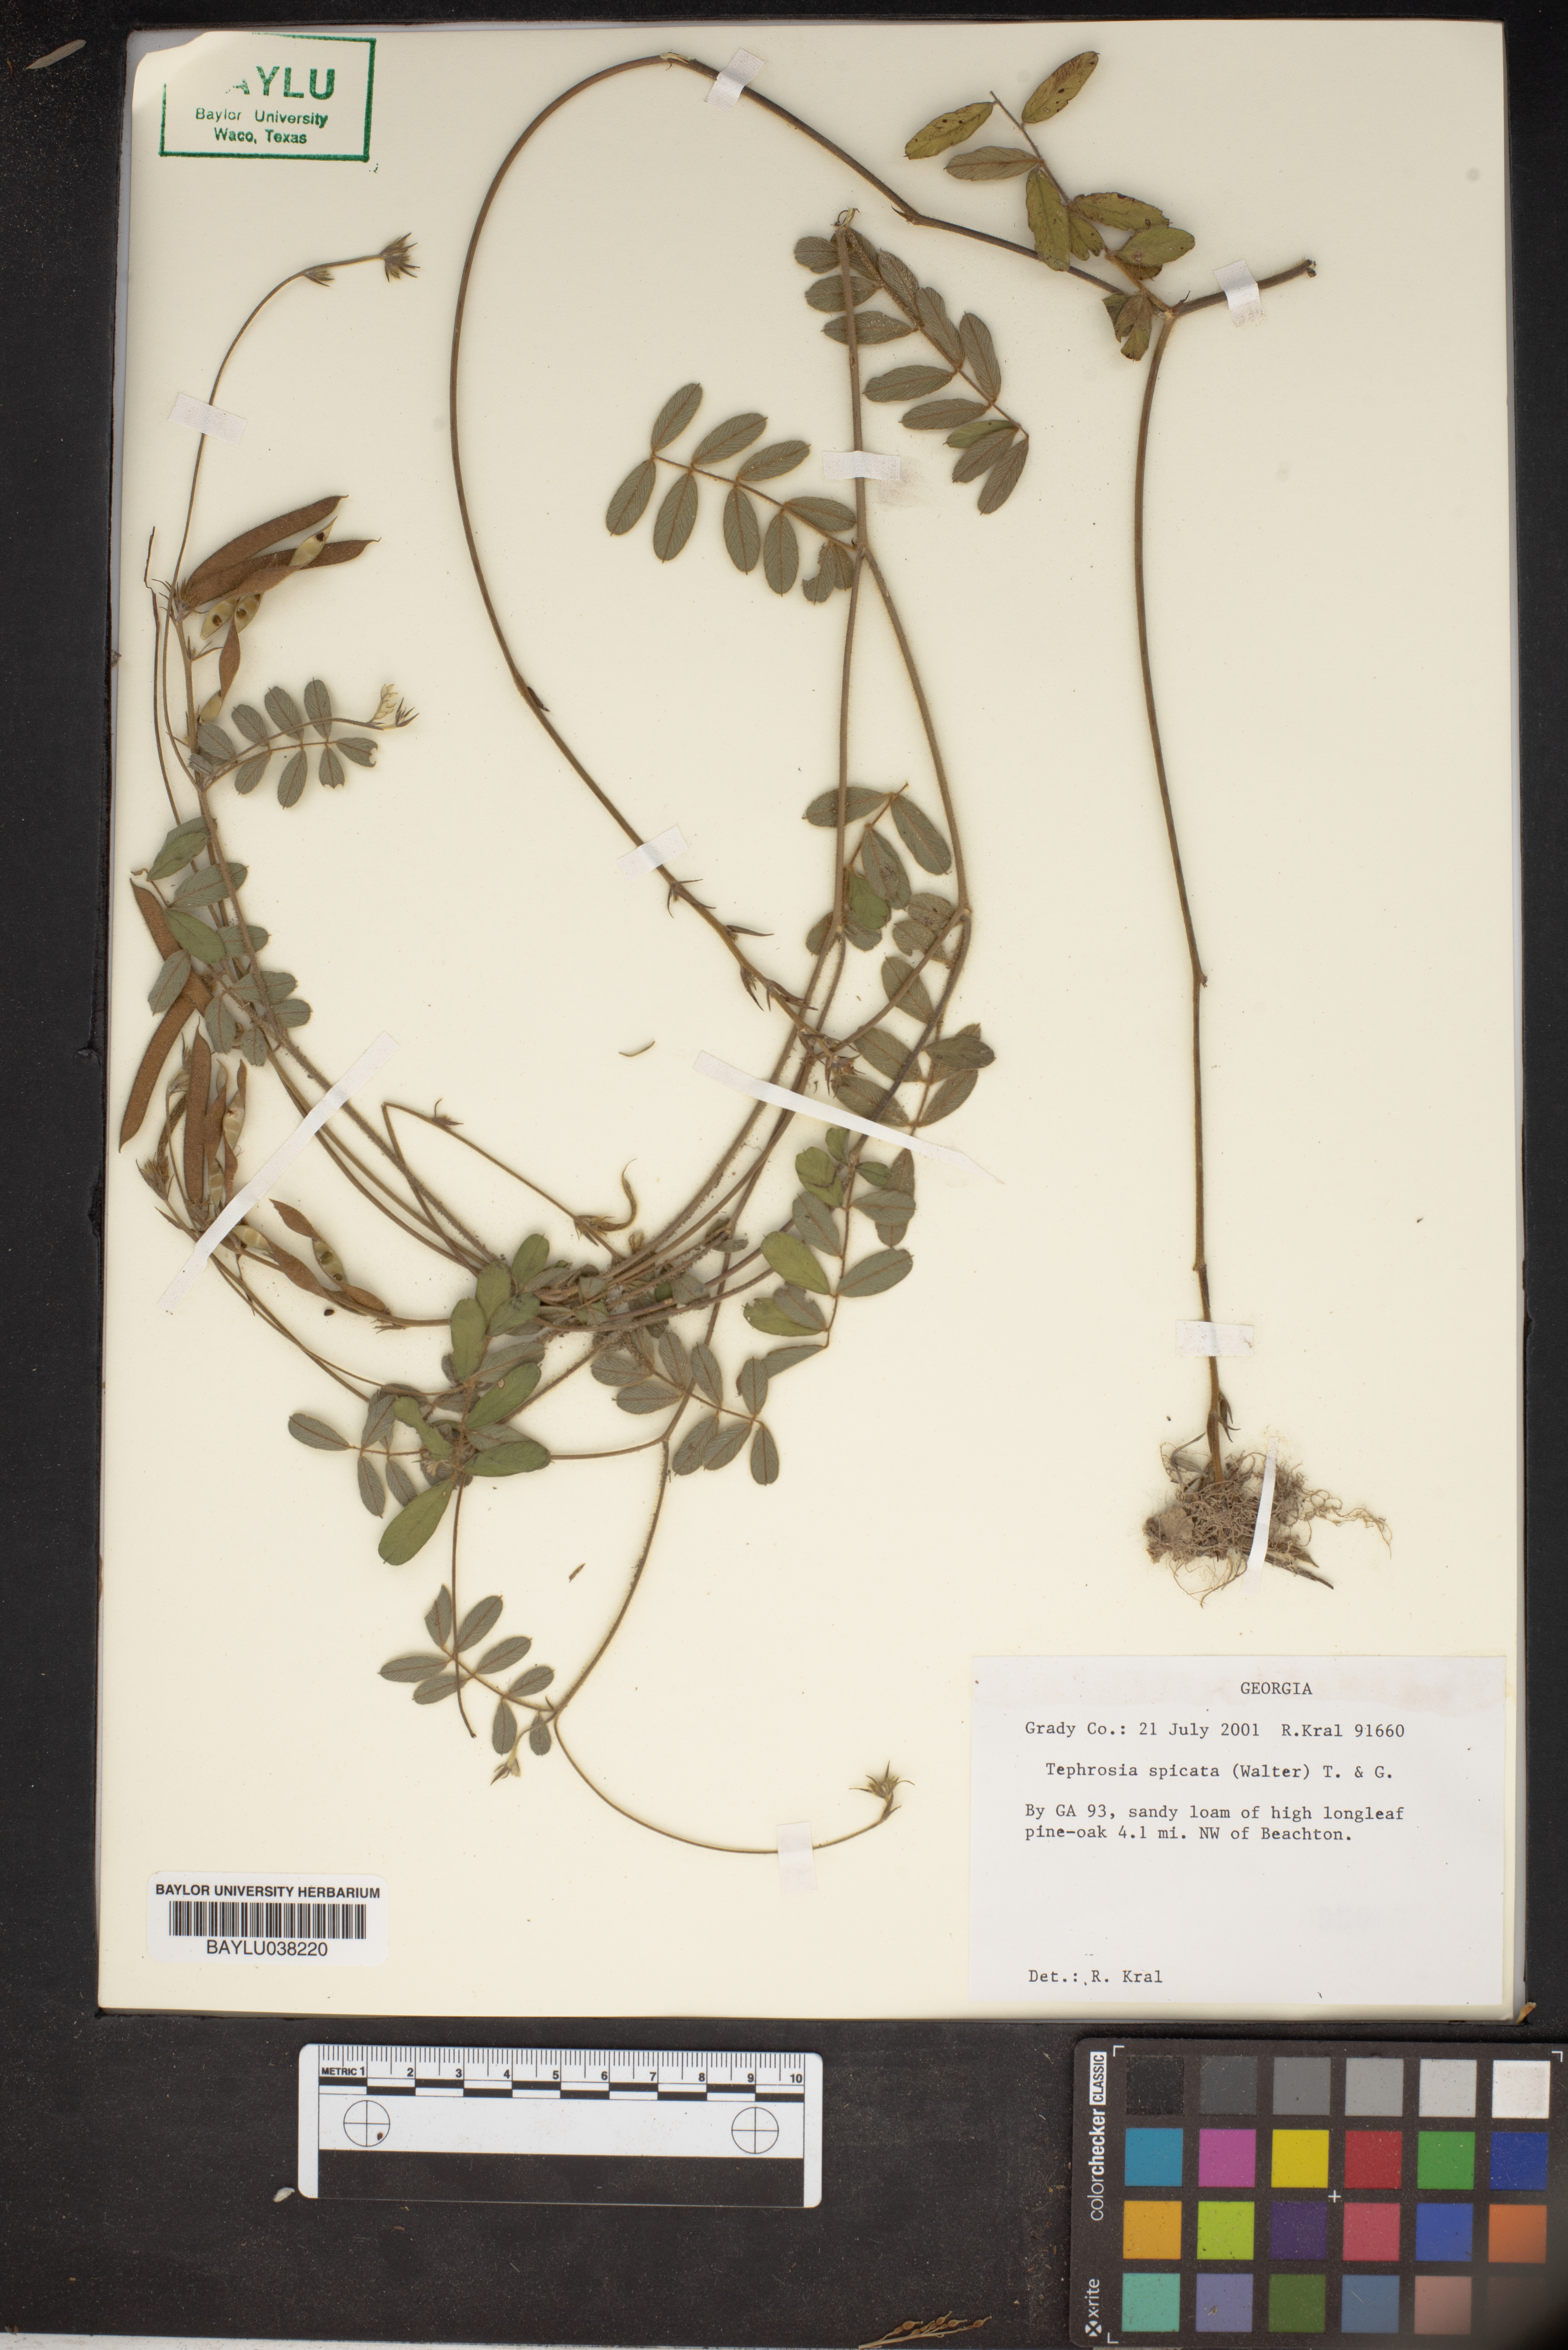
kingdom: Plantae
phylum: Tracheophyta
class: Magnoliopsida
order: Fabales
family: Fabaceae
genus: Tephrosia
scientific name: Tephrosia spicata
